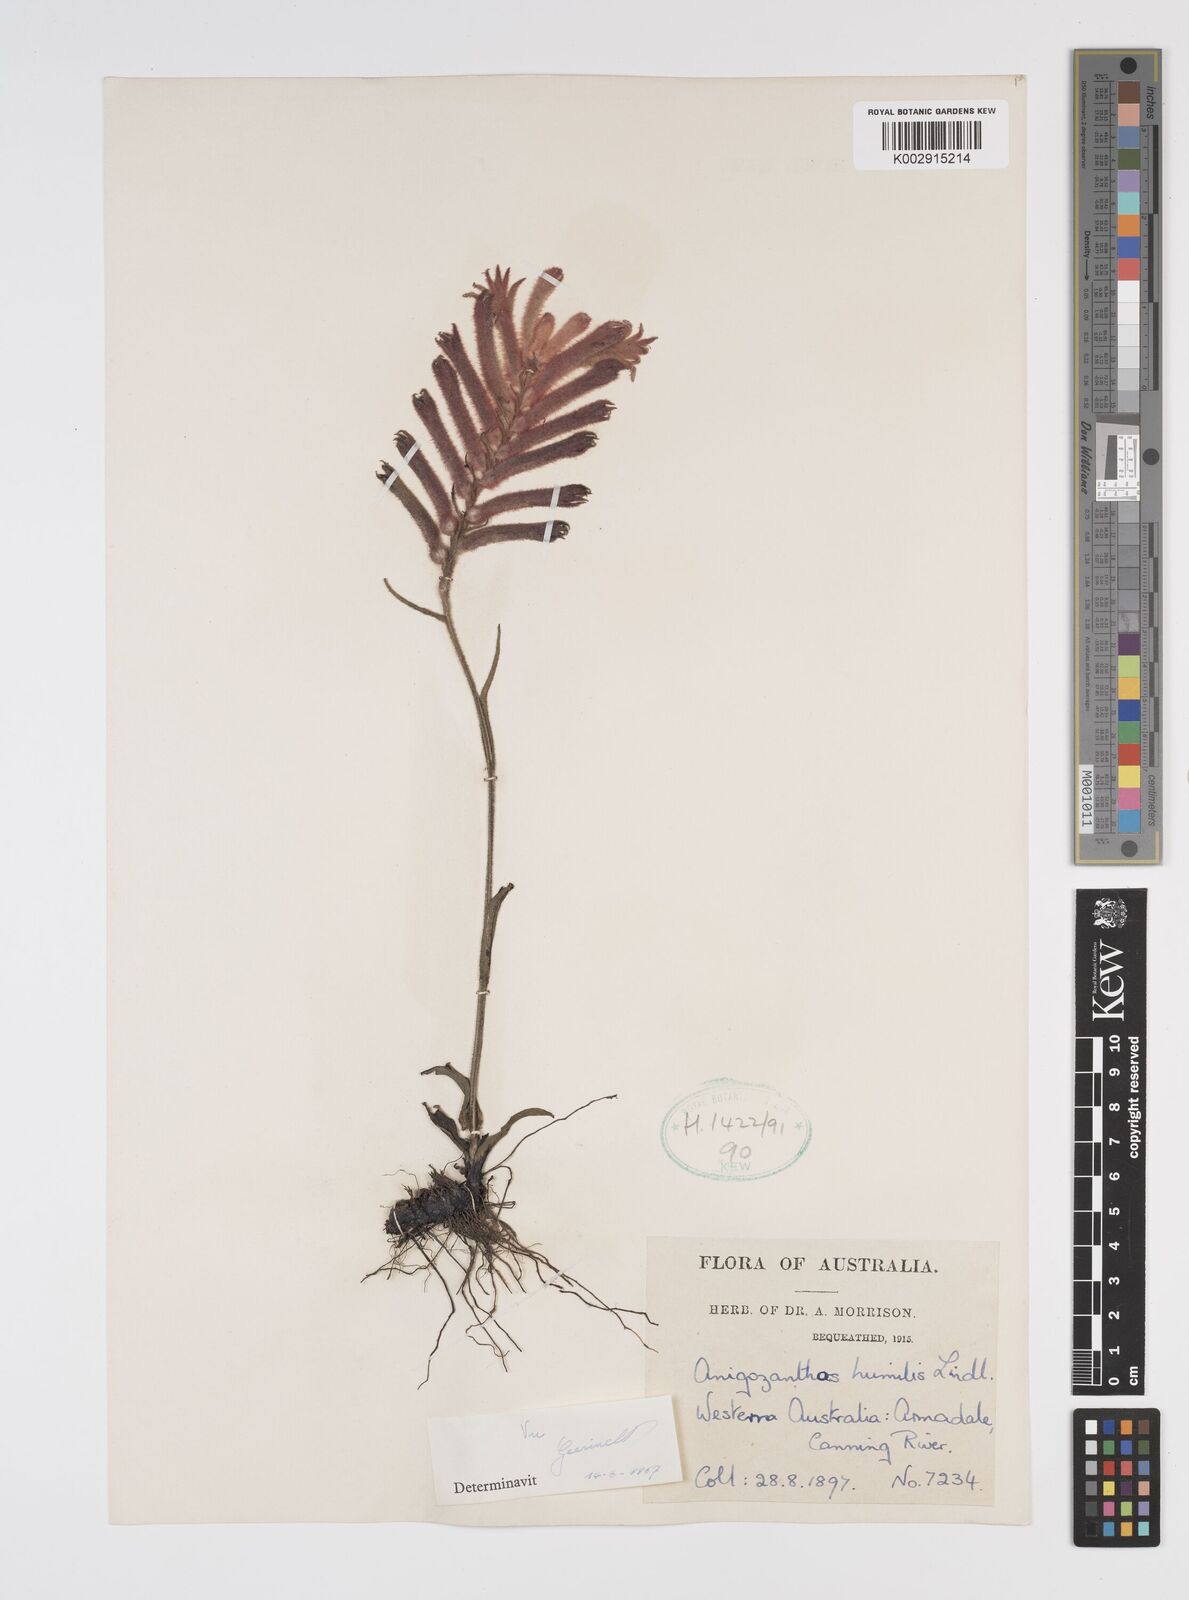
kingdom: Plantae
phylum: Tracheophyta
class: Liliopsida
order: Commelinales
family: Haemodoraceae
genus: Anigozanthos
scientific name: Anigozanthos humilis
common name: Cat's-paw
